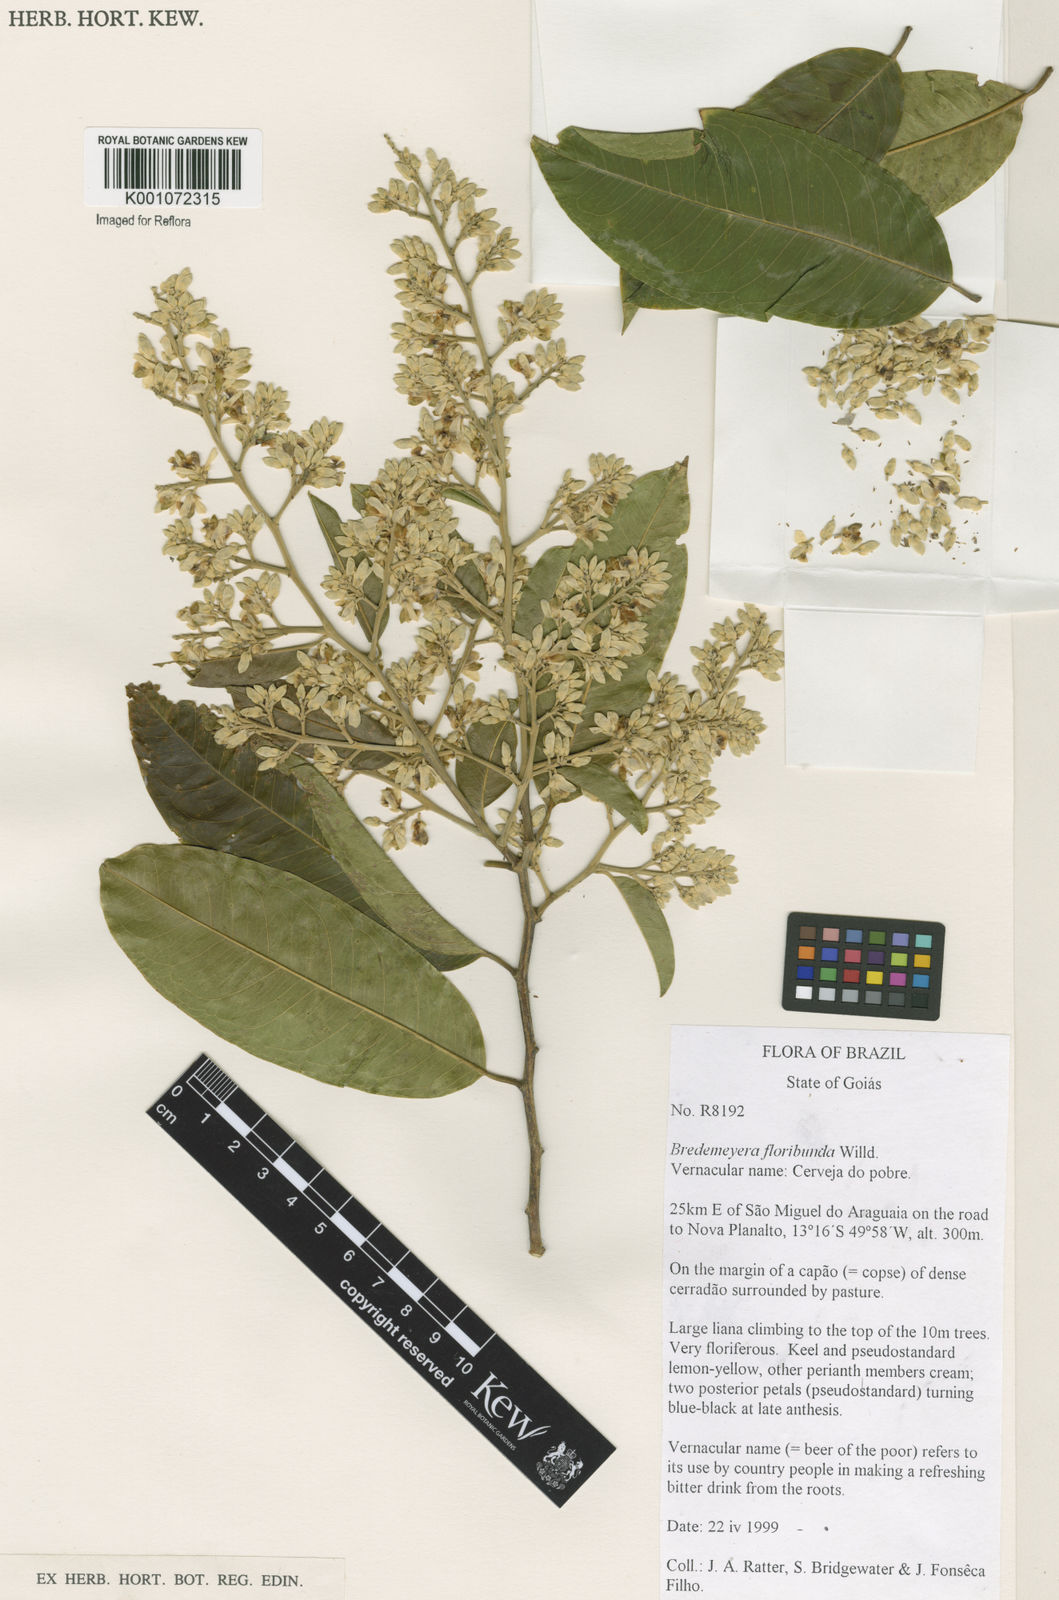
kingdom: Plantae
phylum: Tracheophyta
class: Magnoliopsida
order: Fabales
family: Polygalaceae
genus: Bredemeyera
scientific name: Bredemeyera floribunda
